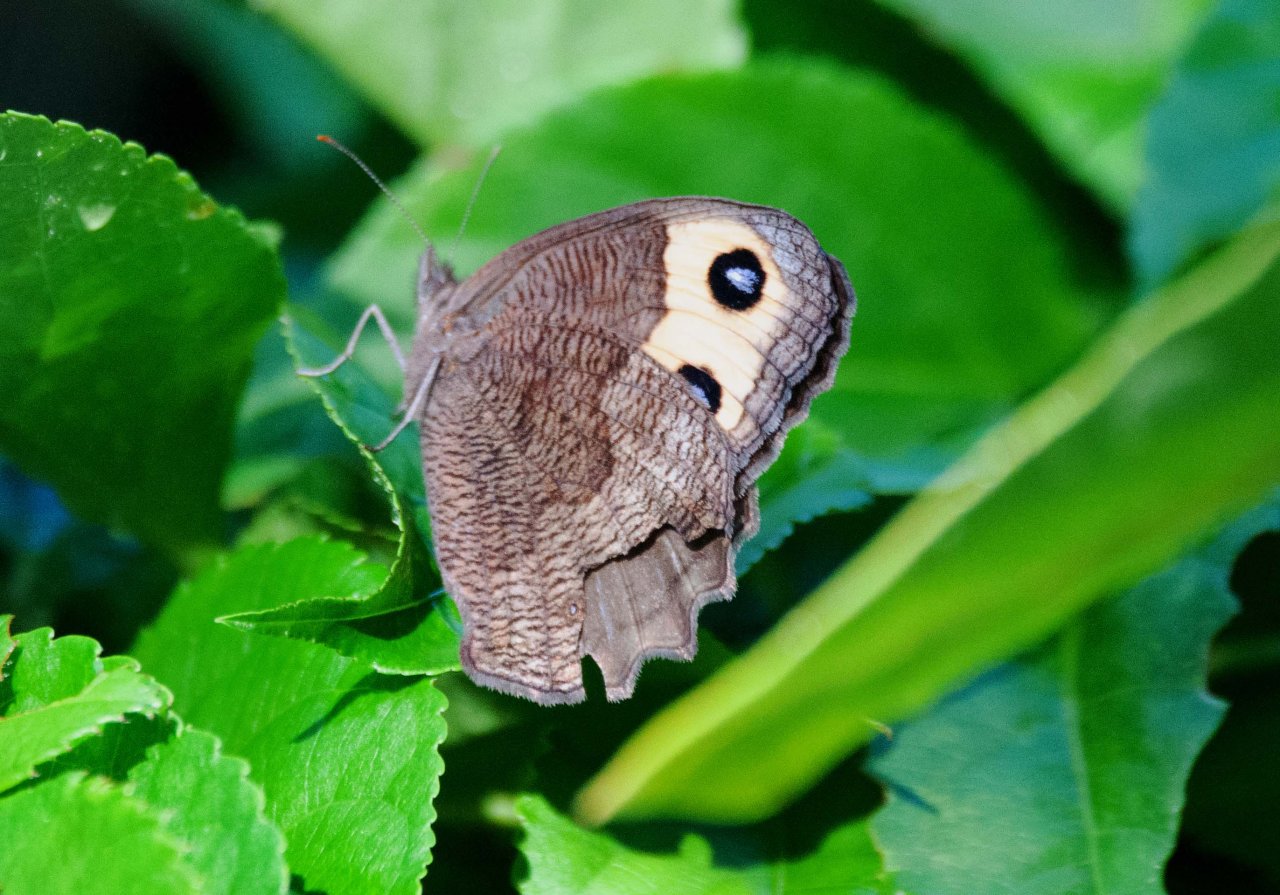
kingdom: Animalia
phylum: Arthropoda
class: Insecta
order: Lepidoptera
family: Nymphalidae
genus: Cercyonis
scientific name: Cercyonis pegala
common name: Common Wood-Nymph
